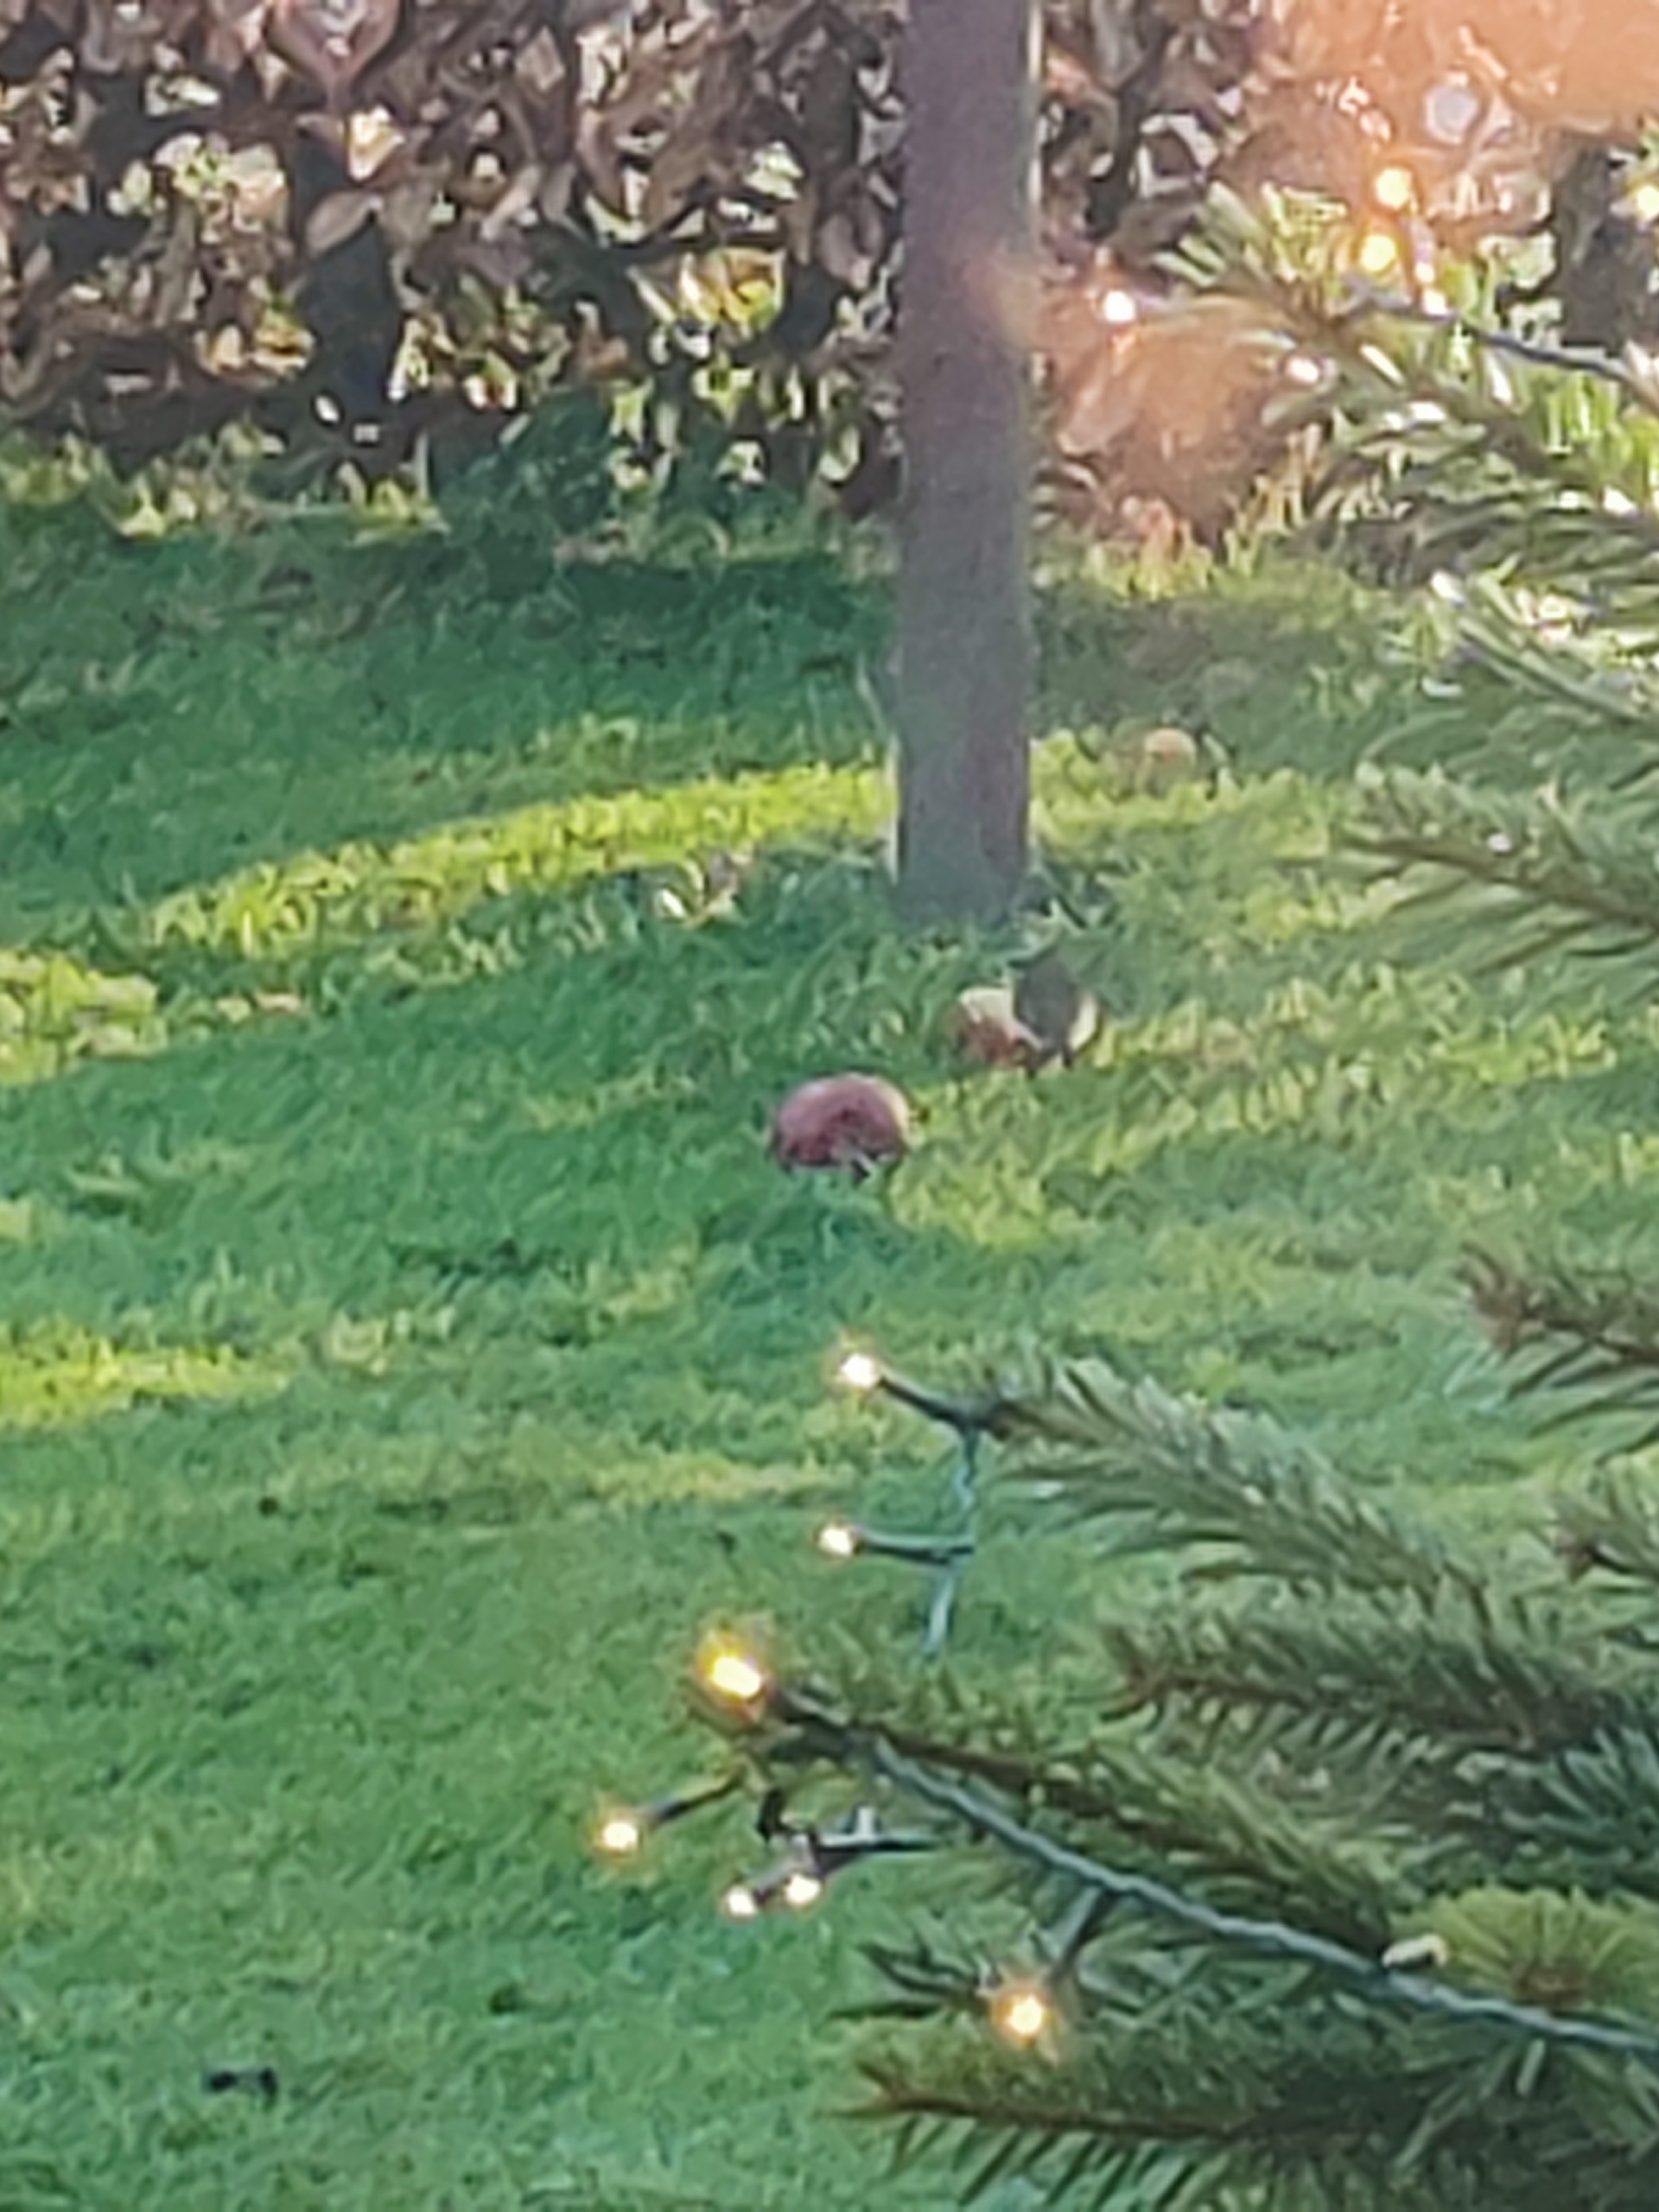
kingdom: Animalia
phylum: Chordata
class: Aves
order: Passeriformes
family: Muscicapidae
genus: Erithacus
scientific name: Erithacus rubecula
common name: Rødhals/rødkælk
